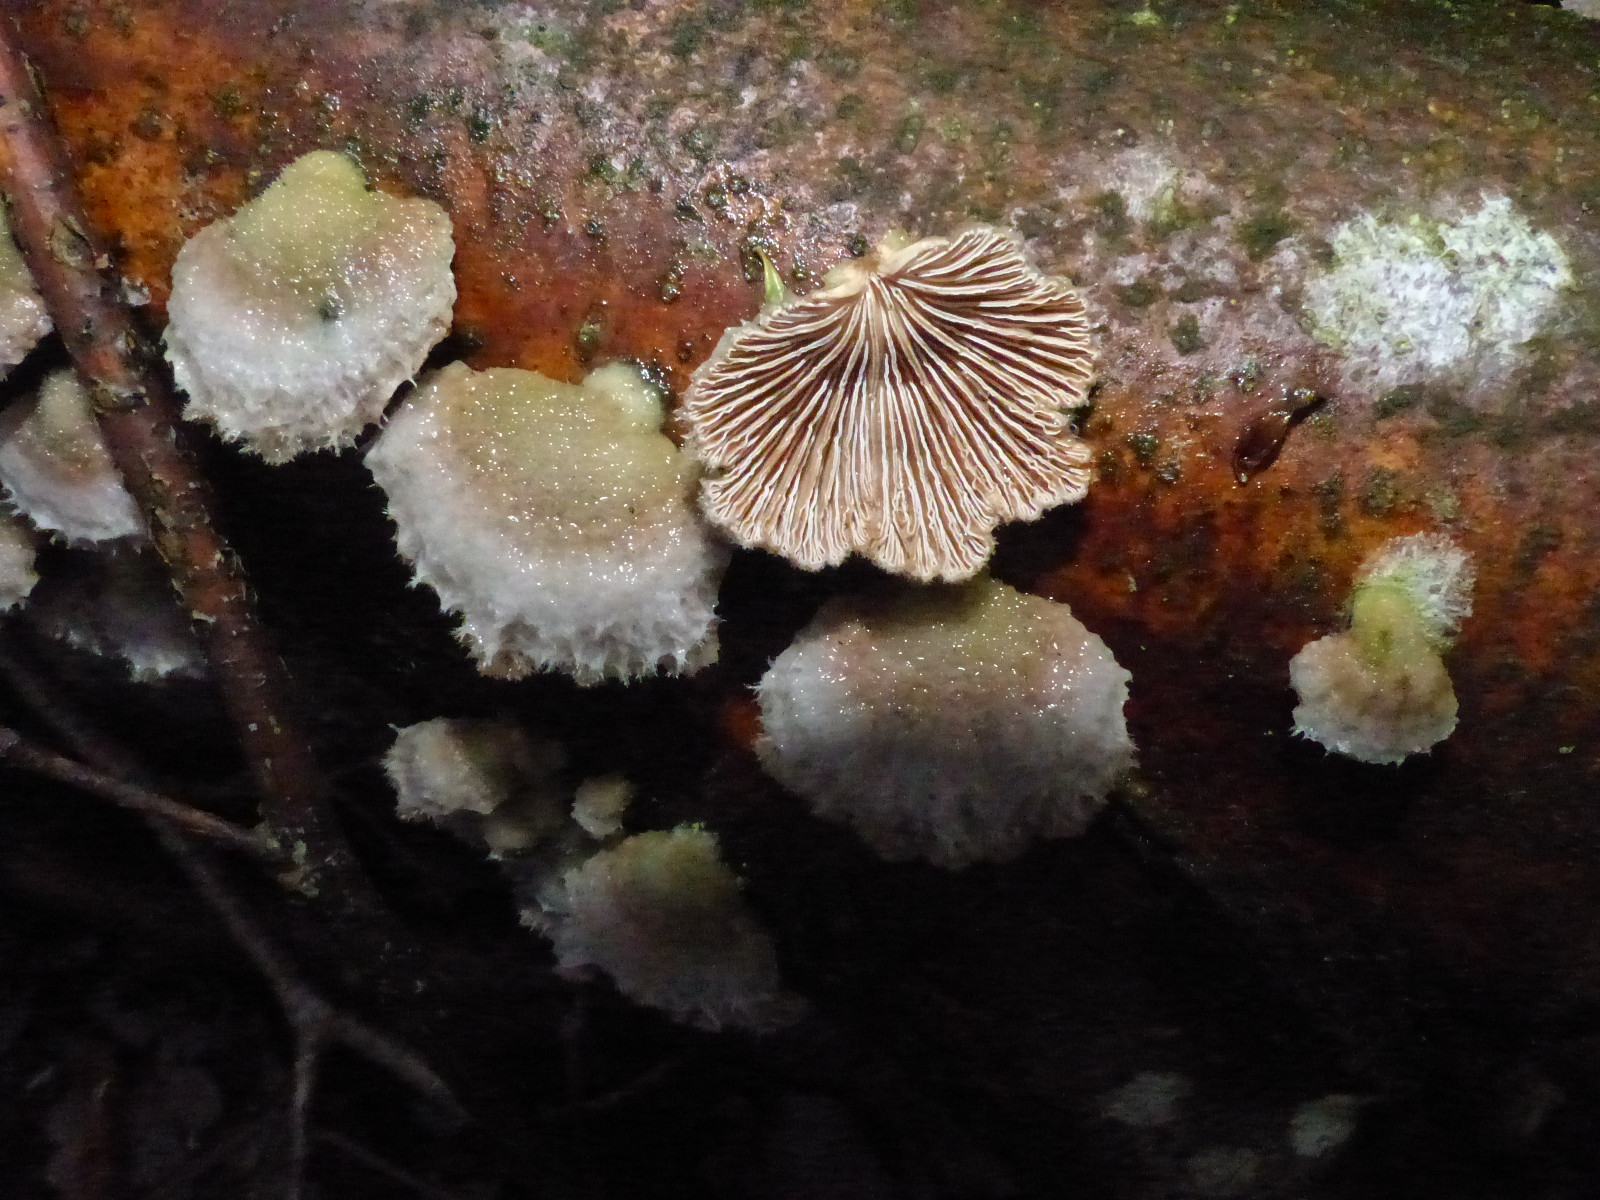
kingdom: Fungi
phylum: Basidiomycota
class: Agaricomycetes
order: Agaricales
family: Schizophyllaceae
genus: Schizophyllum
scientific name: Schizophyllum commune
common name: kløvblad
